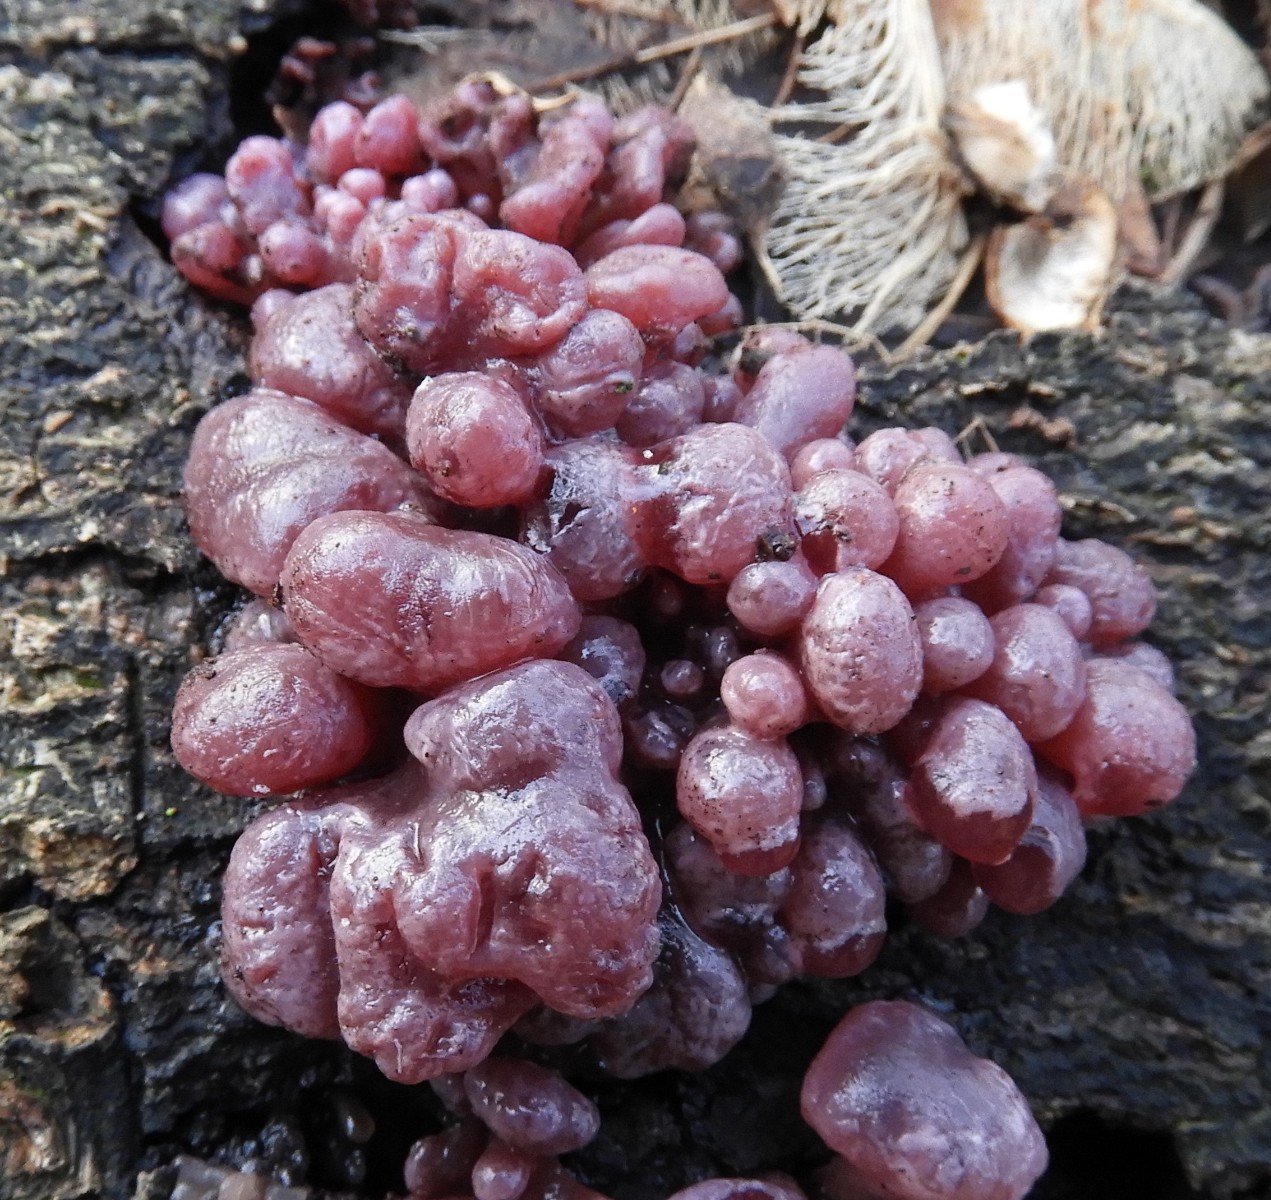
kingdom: Fungi
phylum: Ascomycota
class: Leotiomycetes
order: Helotiales
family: Gelatinodiscaceae
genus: Ascocoryne
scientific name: Ascocoryne sarcoides
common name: rødlilla sejskive
